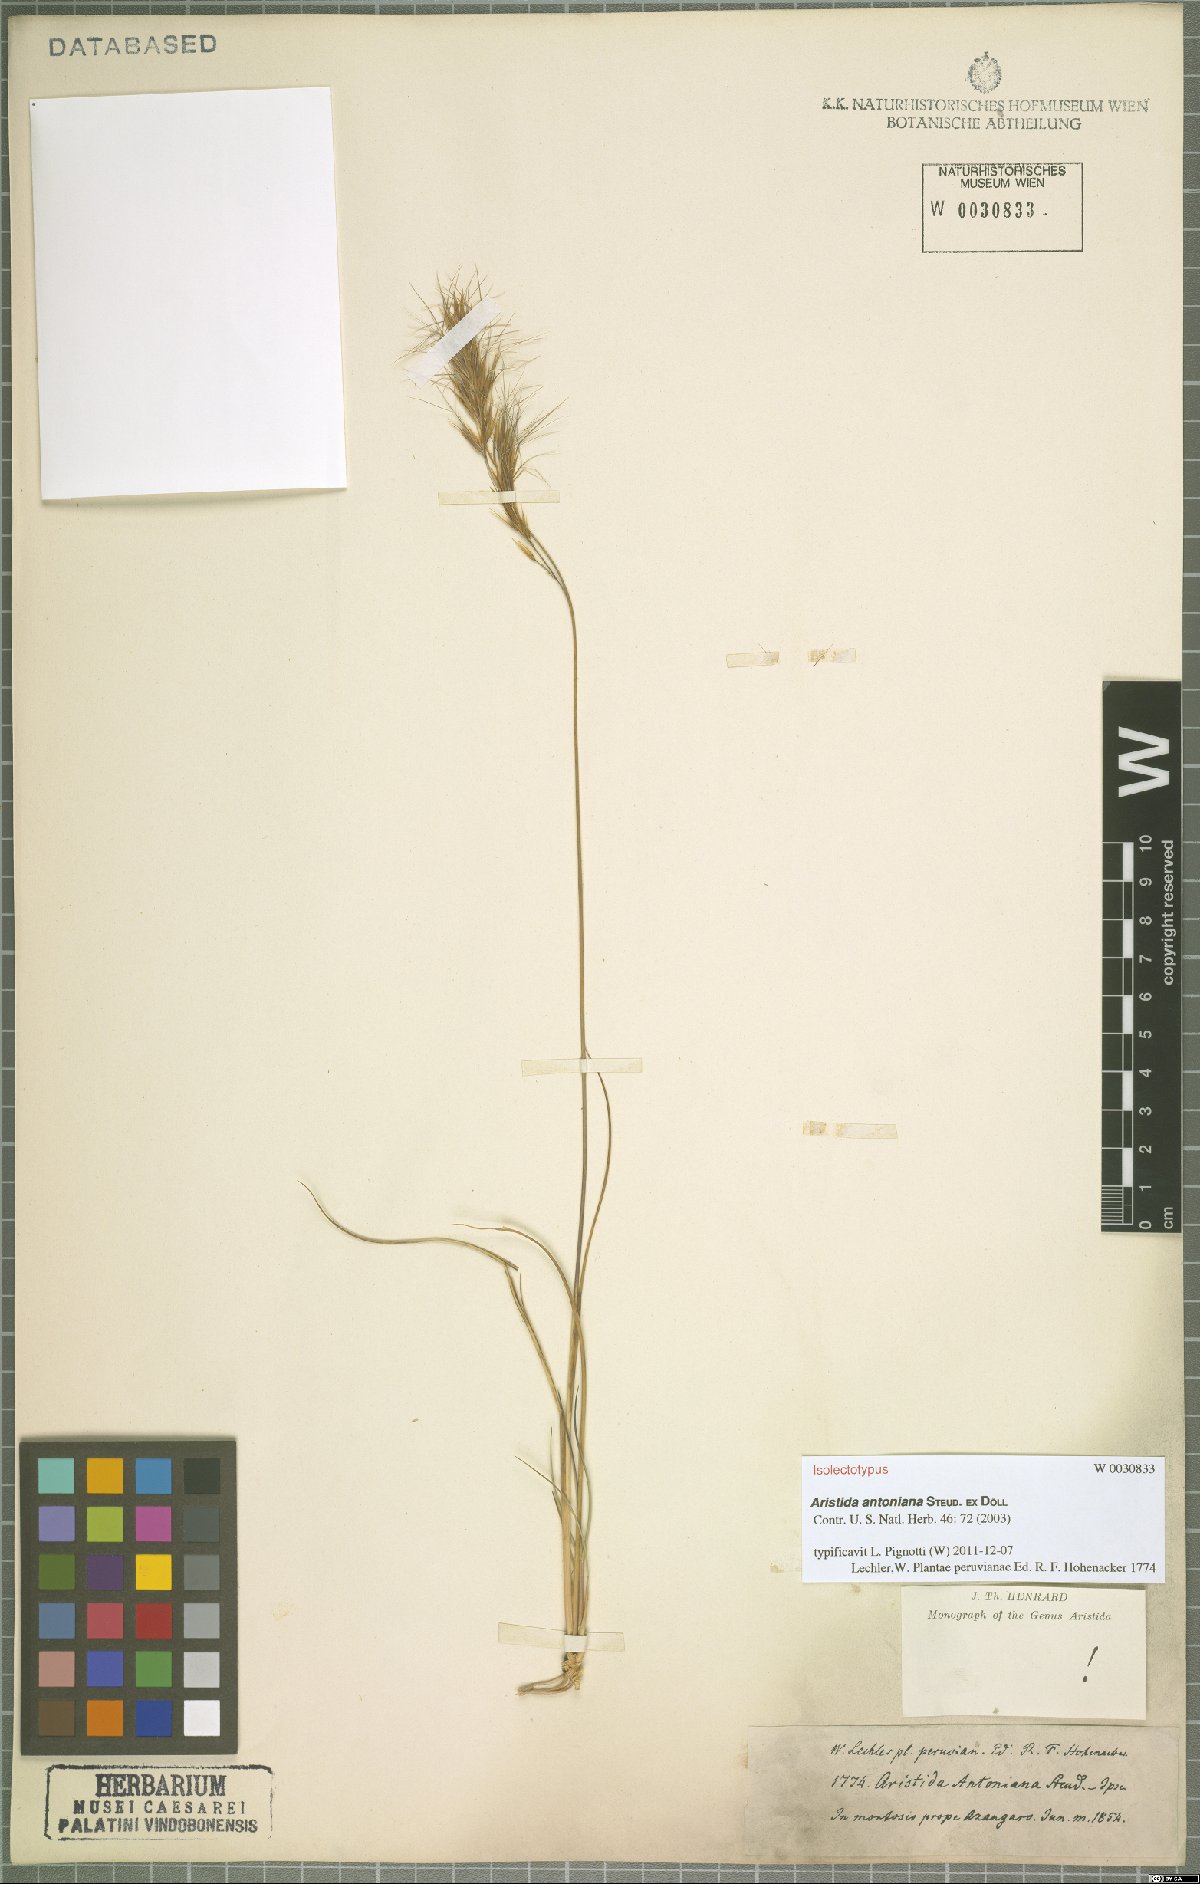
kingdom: Plantae
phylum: Tracheophyta
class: Liliopsida
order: Poales
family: Poaceae
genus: Aristida
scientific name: Aristida antoniana
